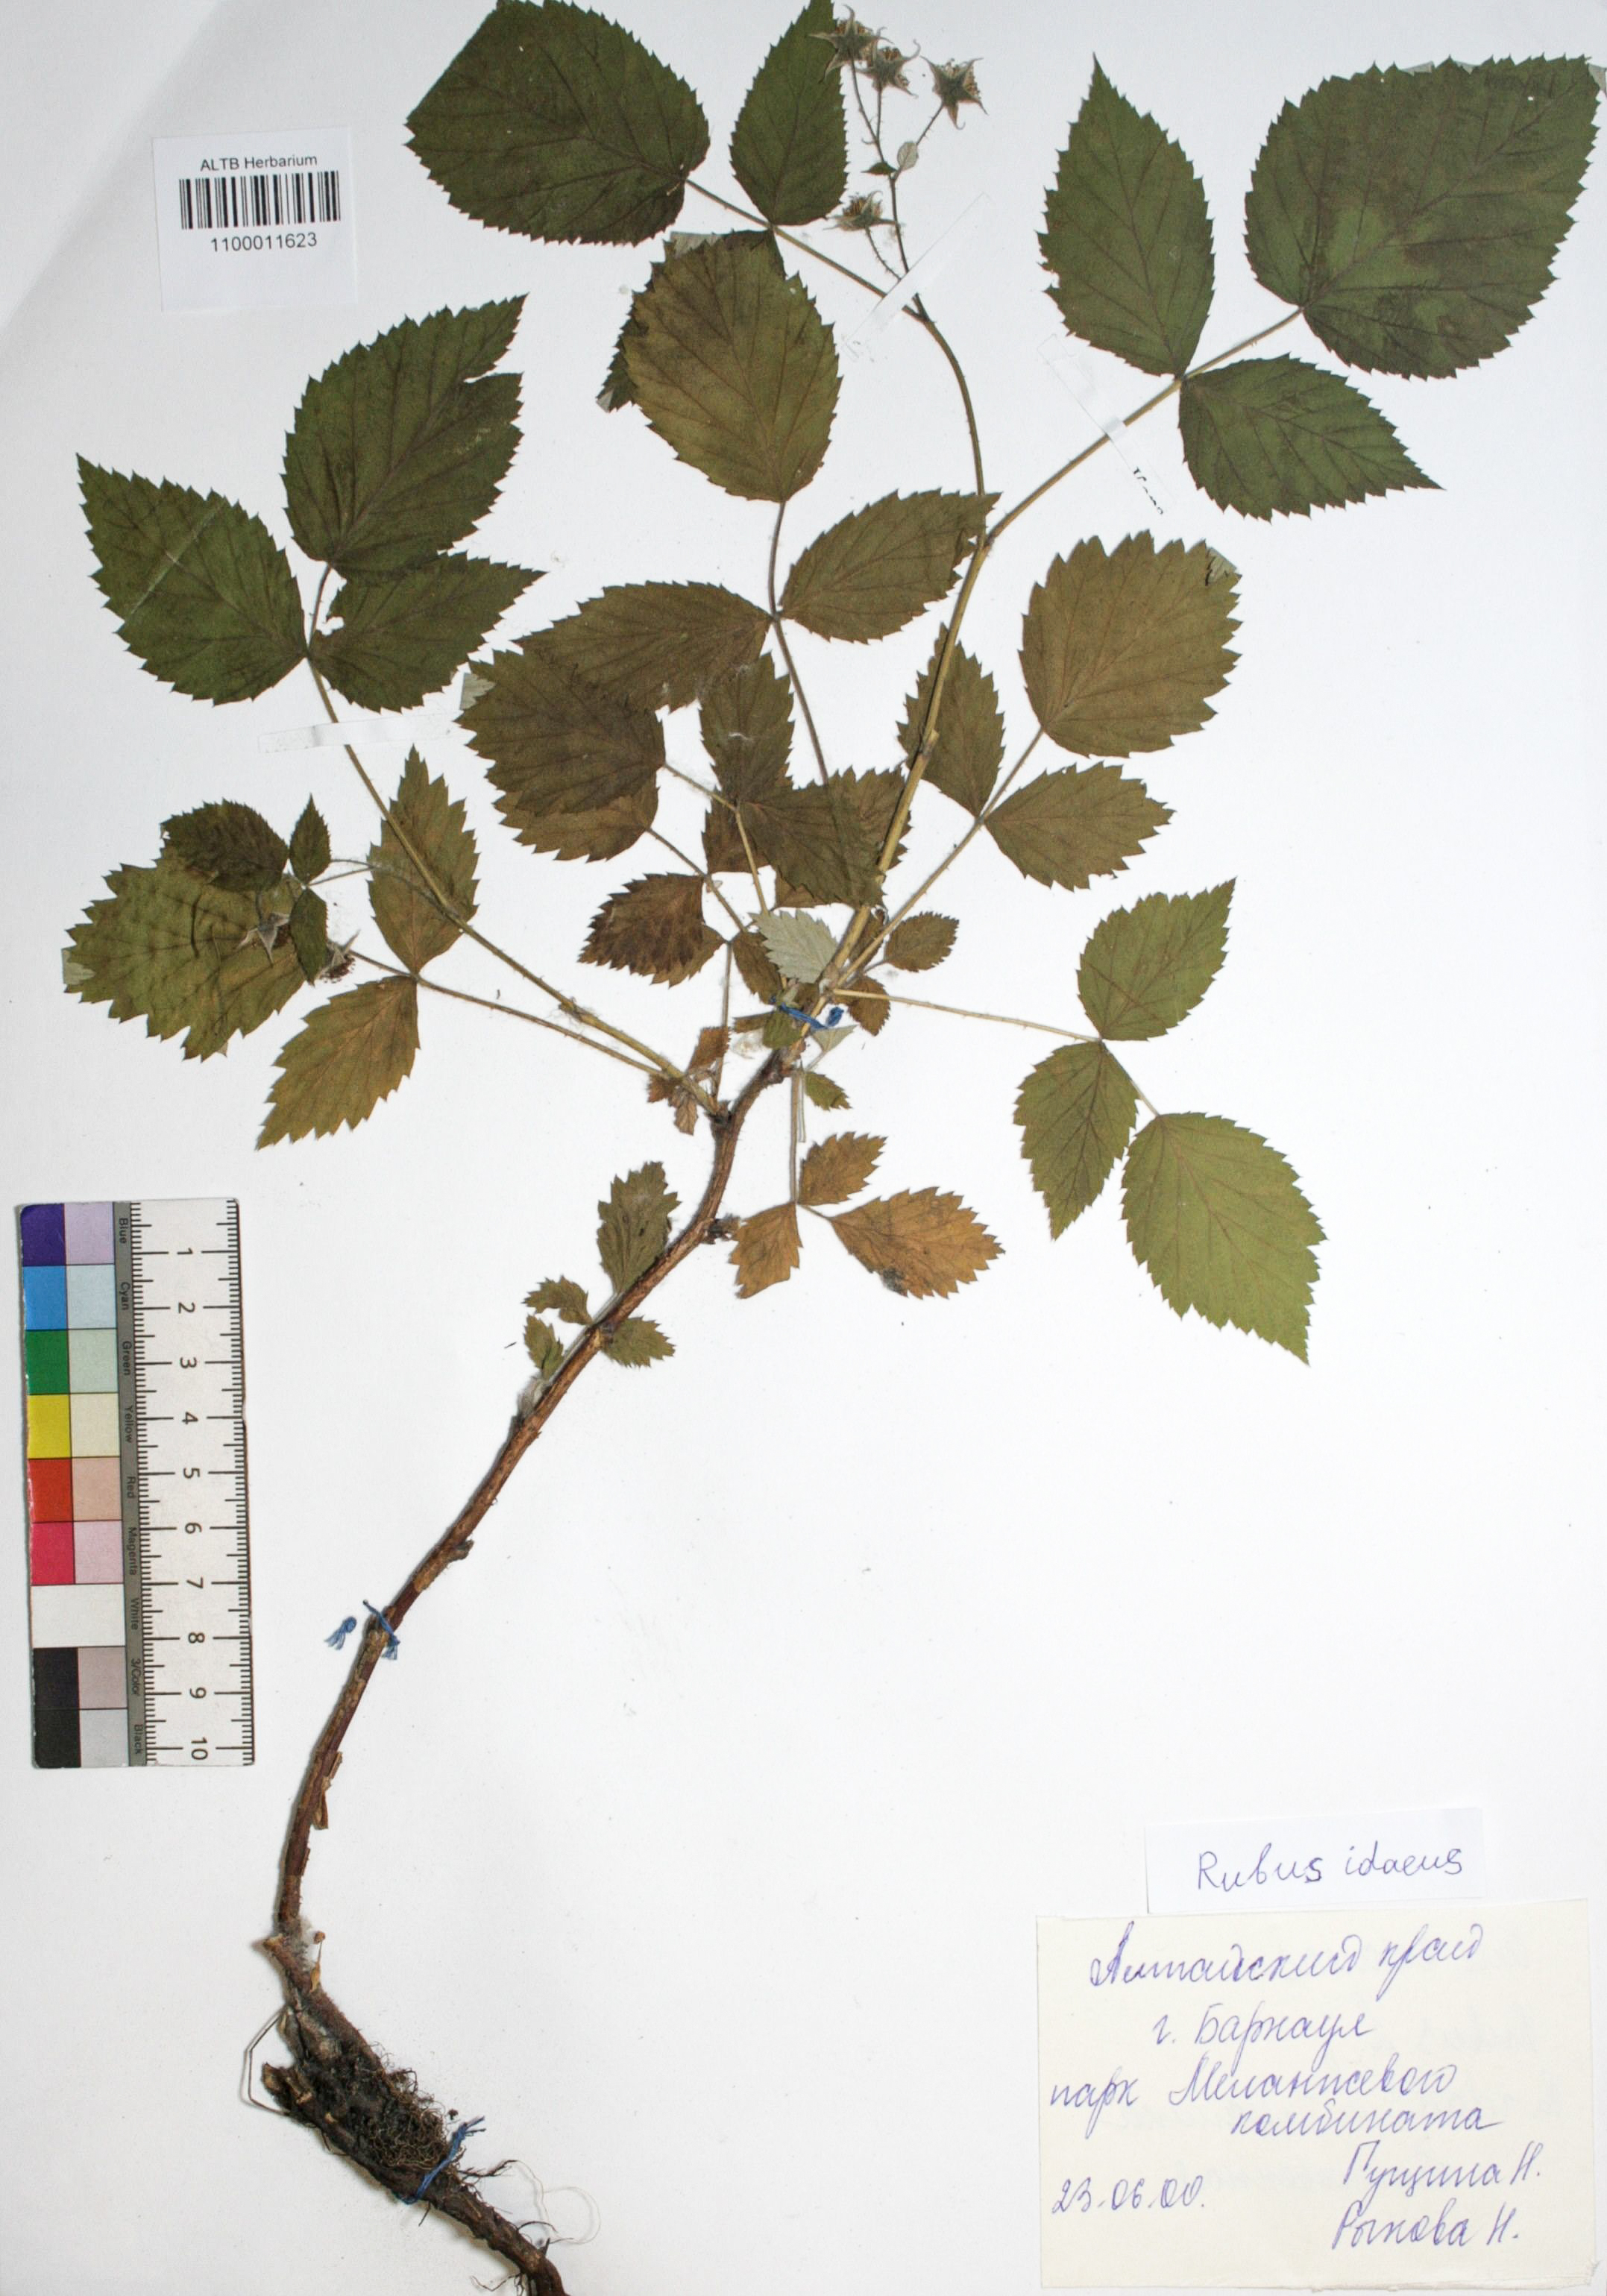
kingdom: Plantae
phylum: Tracheophyta
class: Magnoliopsida
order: Rosales
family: Rosaceae
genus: Rubus
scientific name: Rubus idaeus
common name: Raspberry
